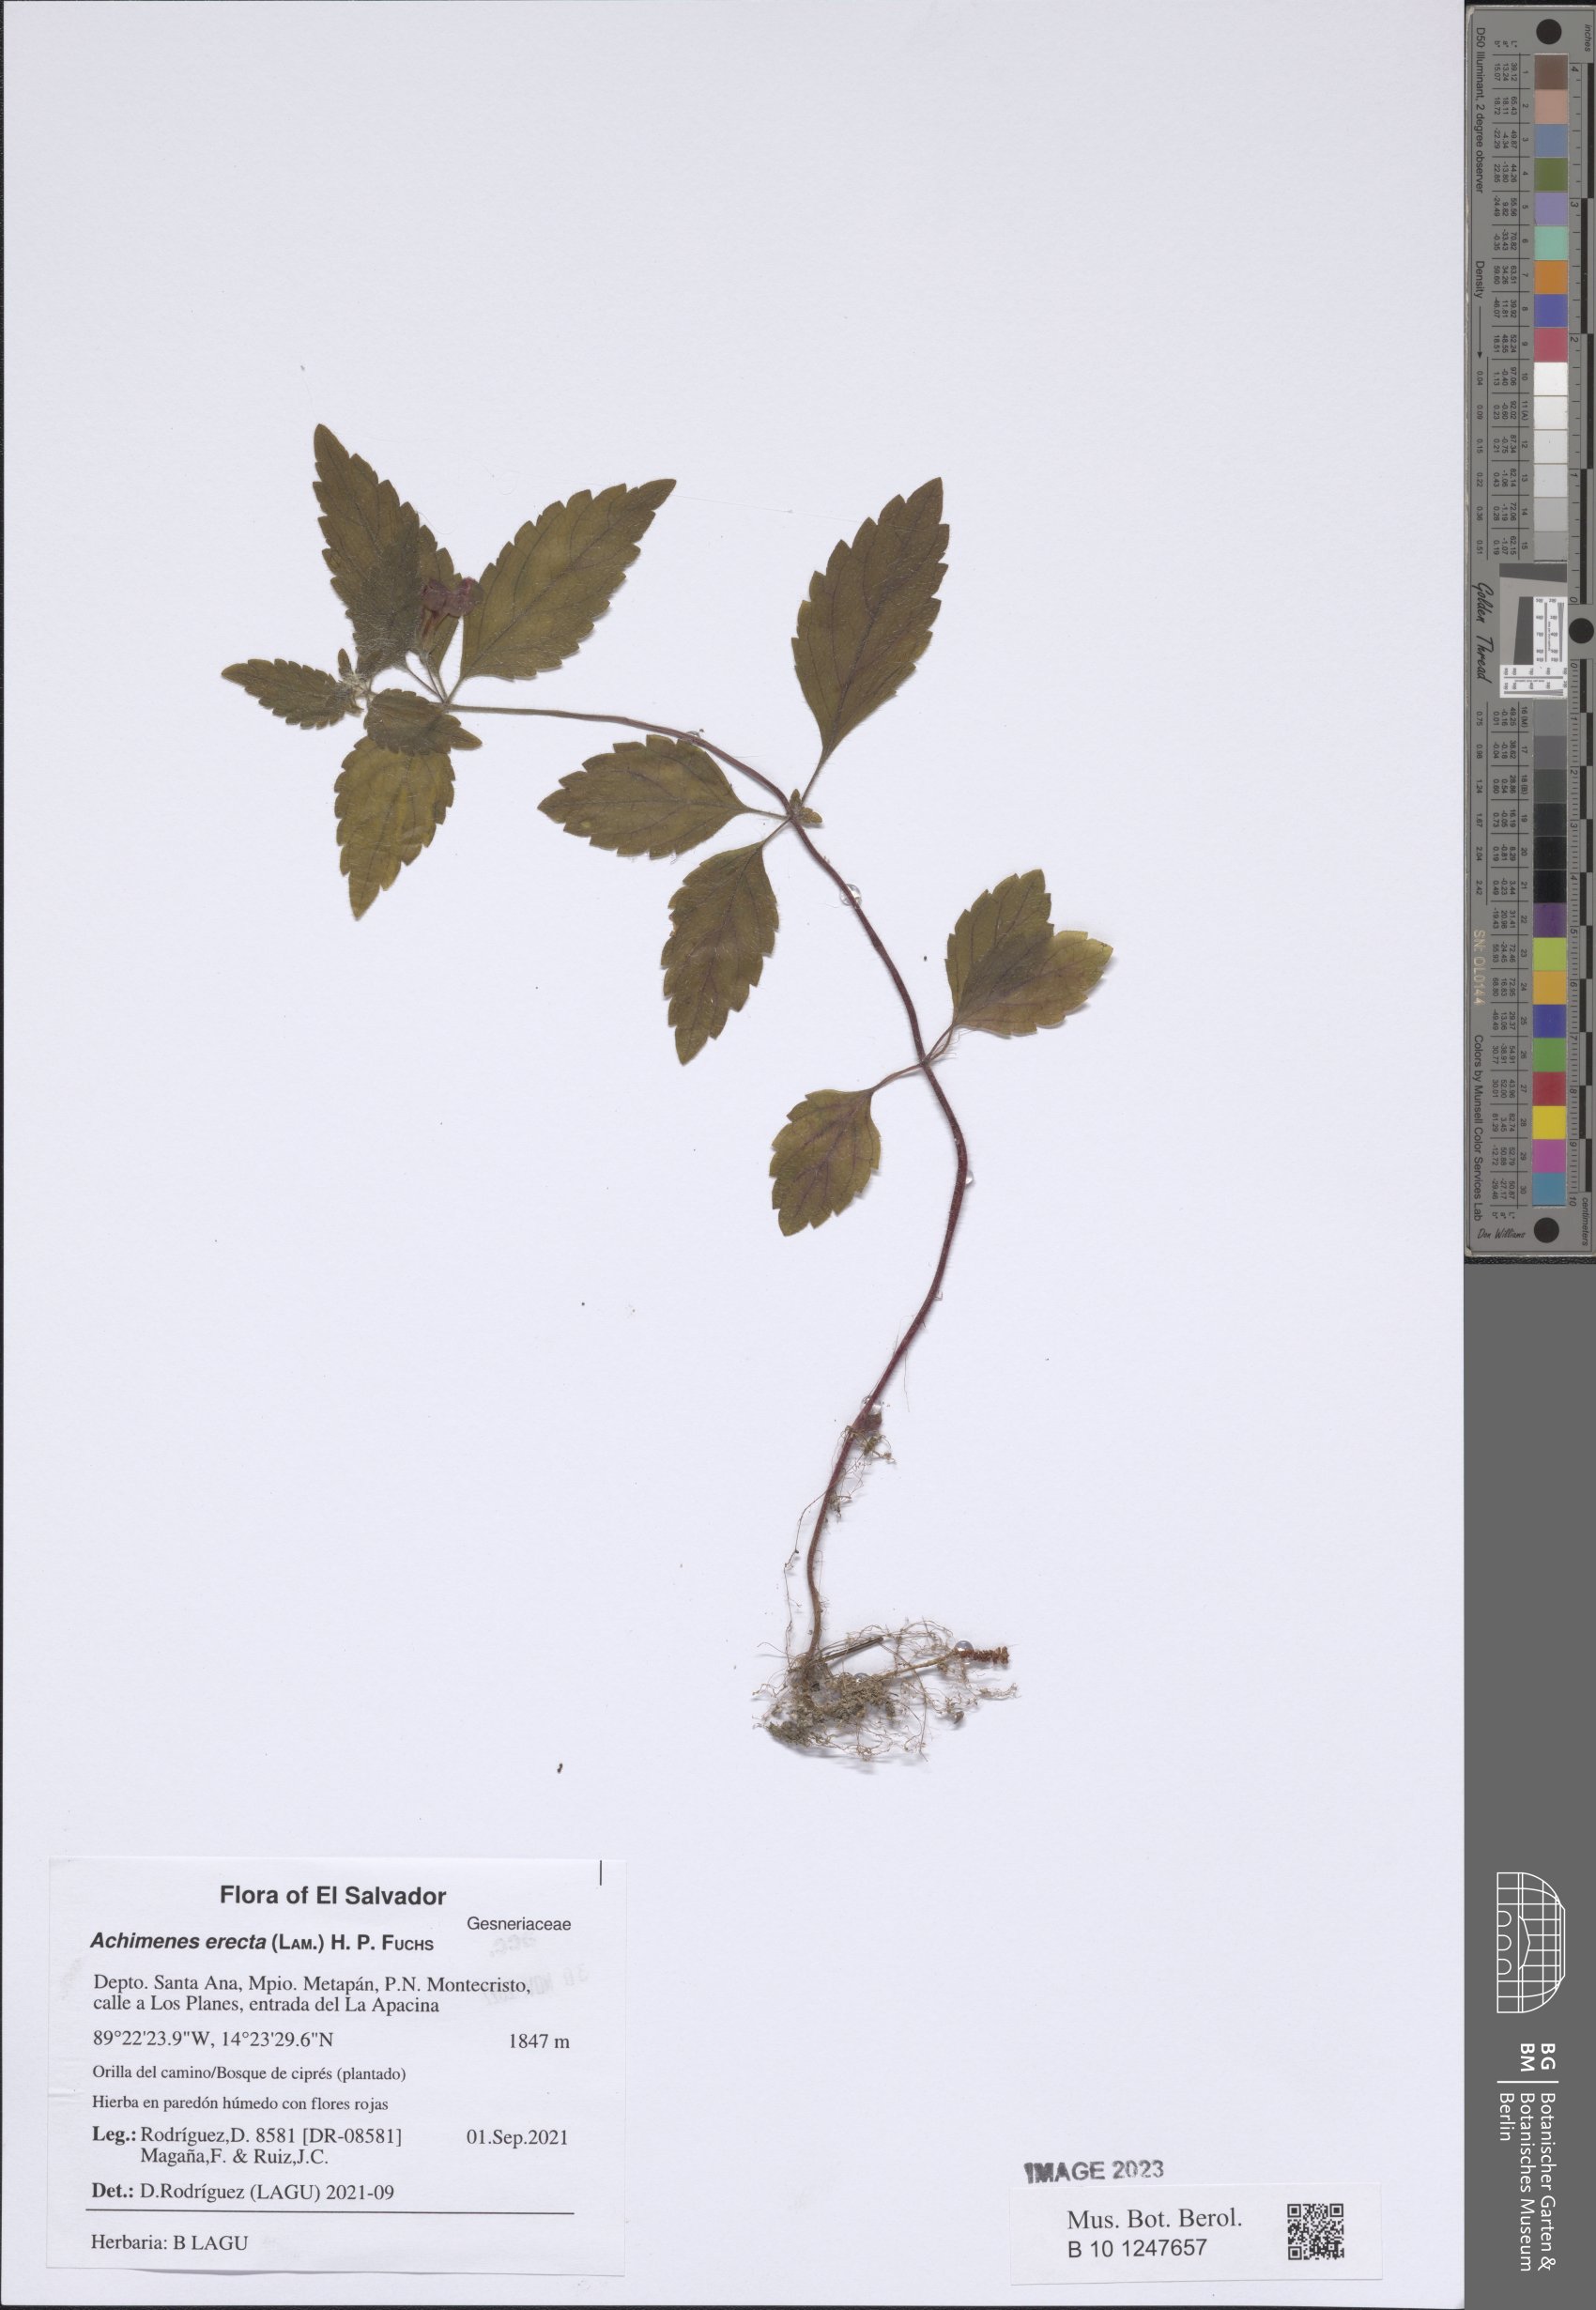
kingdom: Plantae
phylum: Tracheophyta
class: Magnoliopsida
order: Lamiales
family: Gesneriaceae
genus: Achimenes
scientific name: Achimenes erecta
